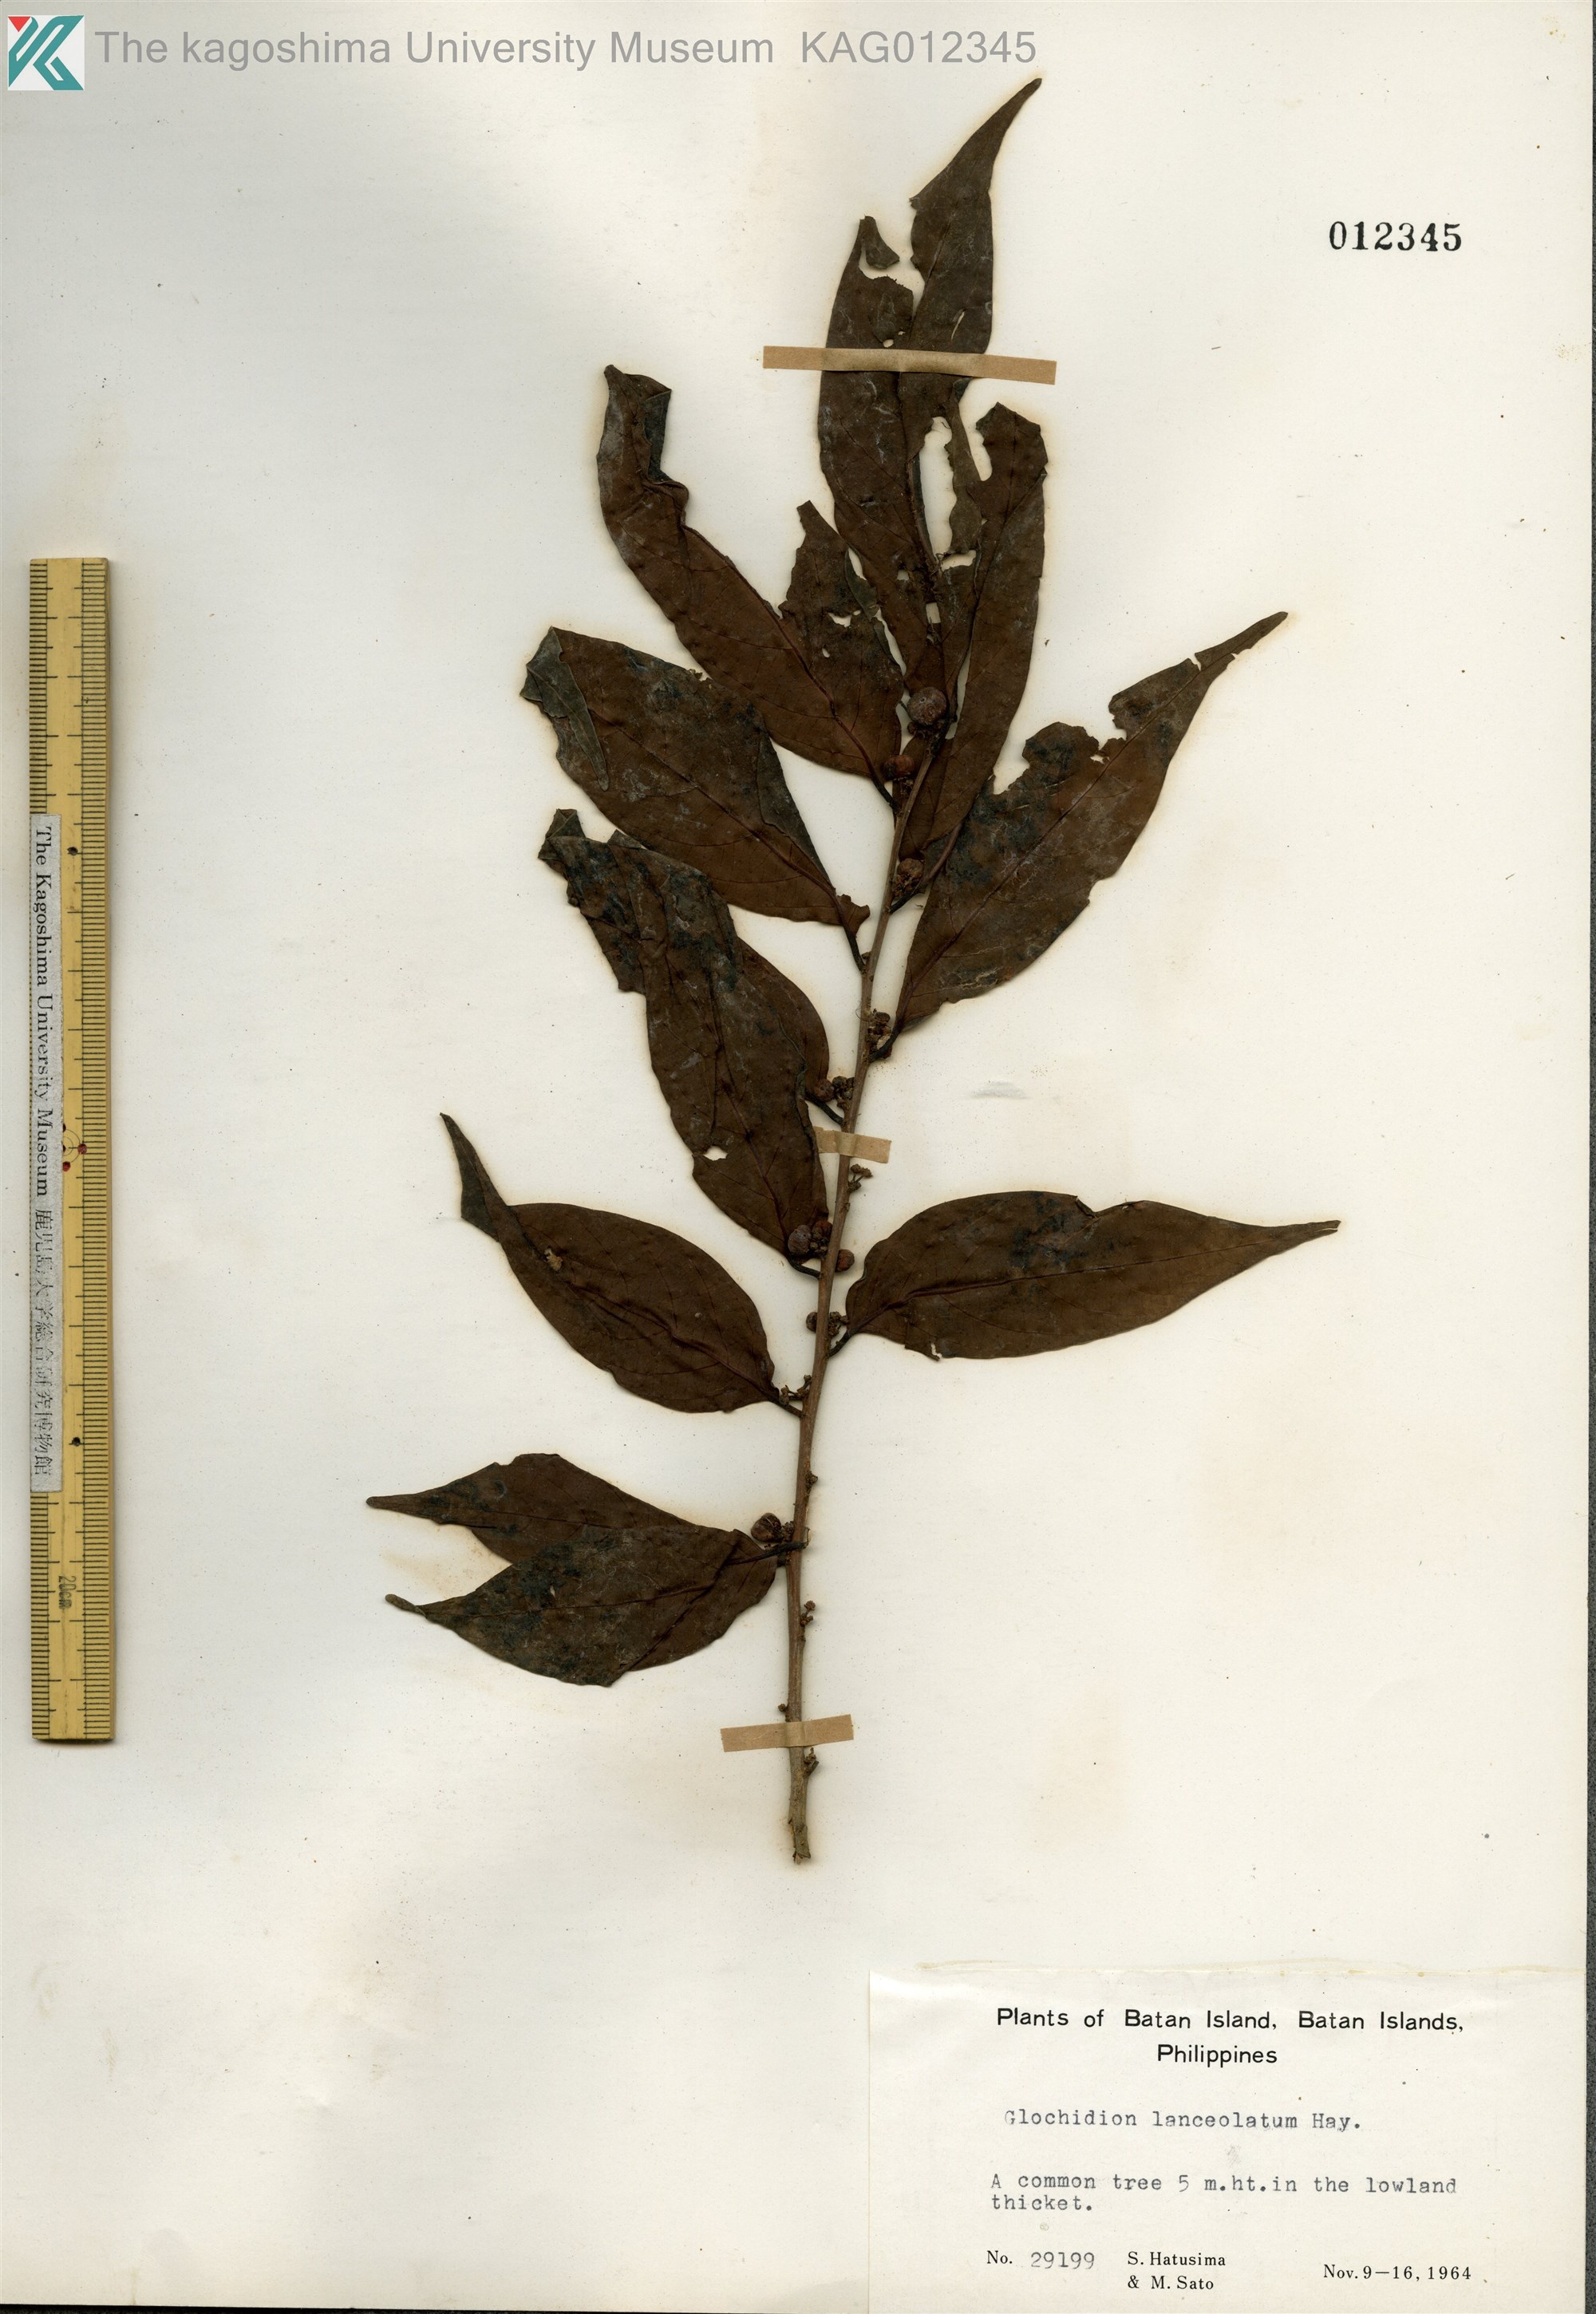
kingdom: Plantae
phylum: Tracheophyta
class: Magnoliopsida
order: Malpighiales
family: Phyllanthaceae
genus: Glochidion
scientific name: Glochidion lanceolatum
